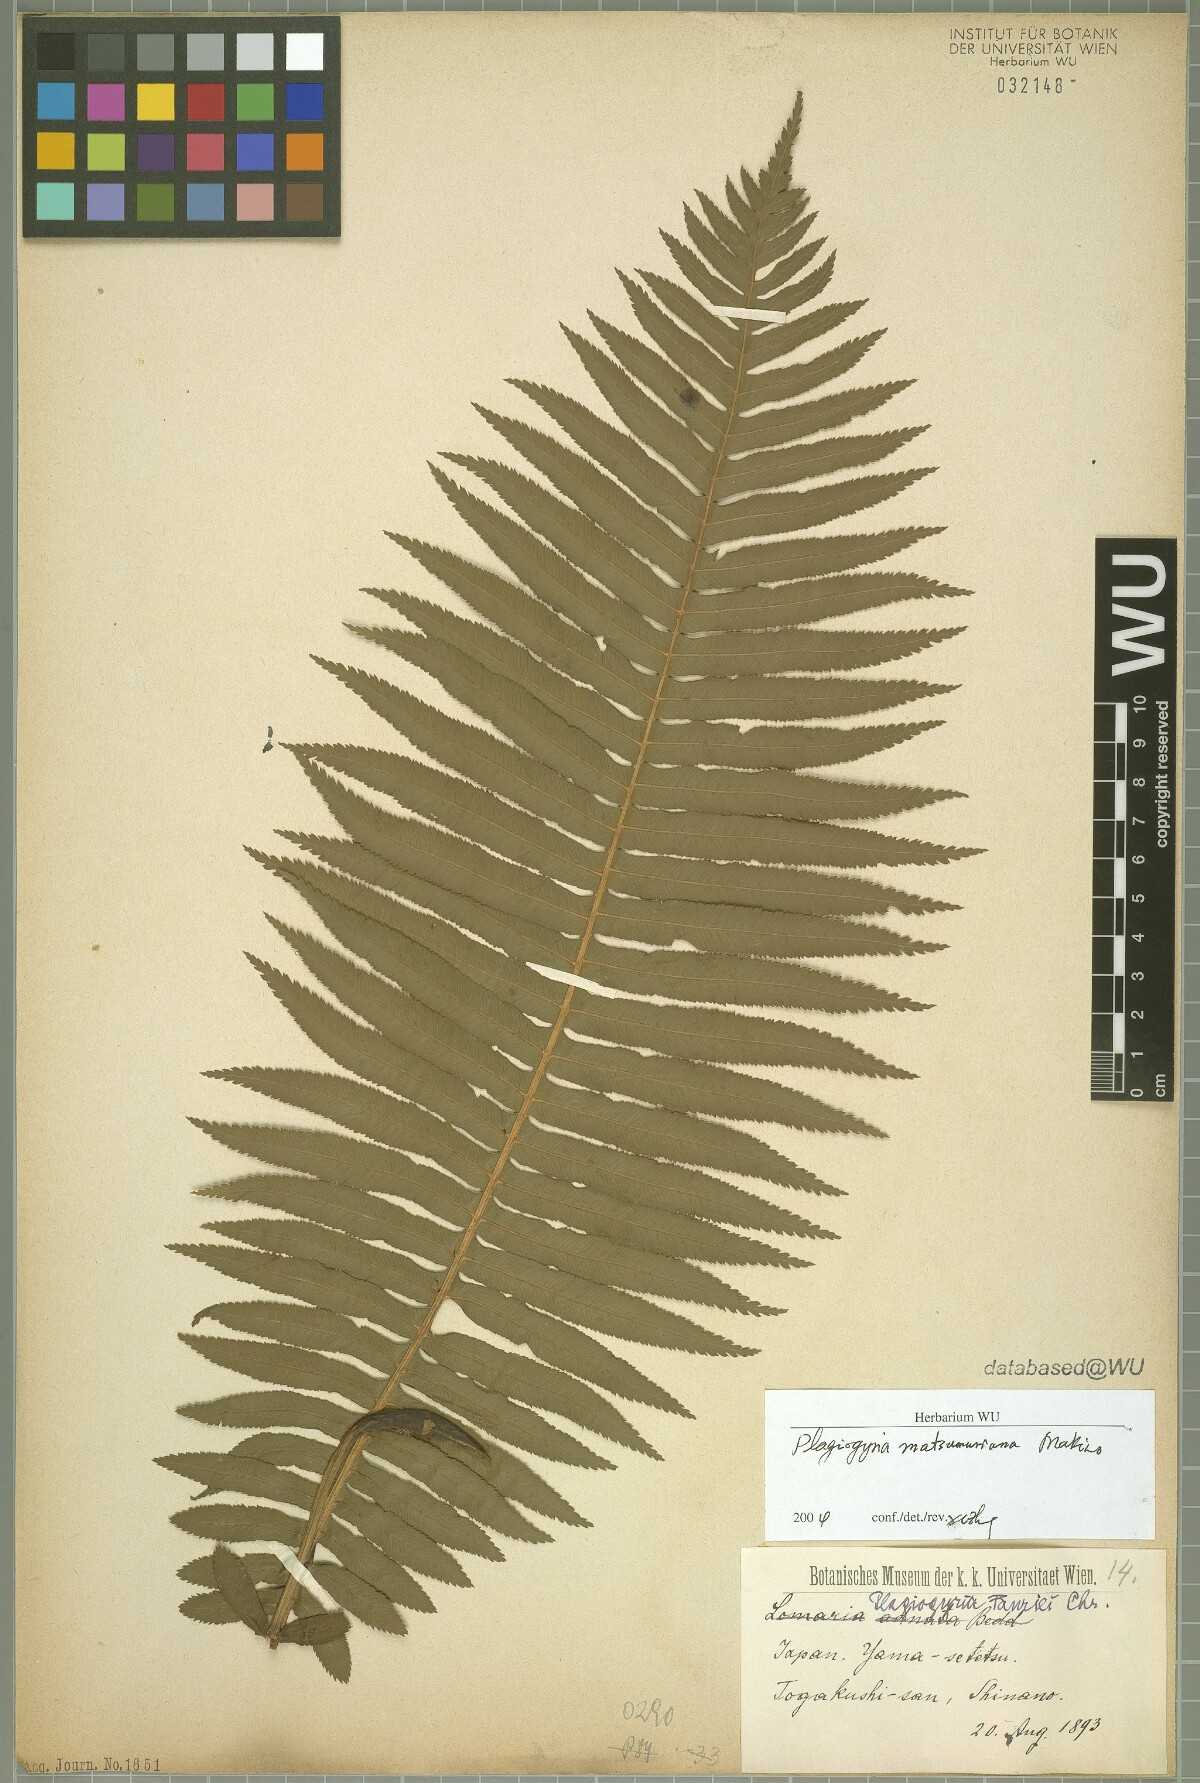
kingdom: Plantae
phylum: Tracheophyta
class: Polypodiopsida
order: Cyatheales
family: Plagiogyriaceae
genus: Plagiogyria
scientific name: Plagiogyria matsumureana
